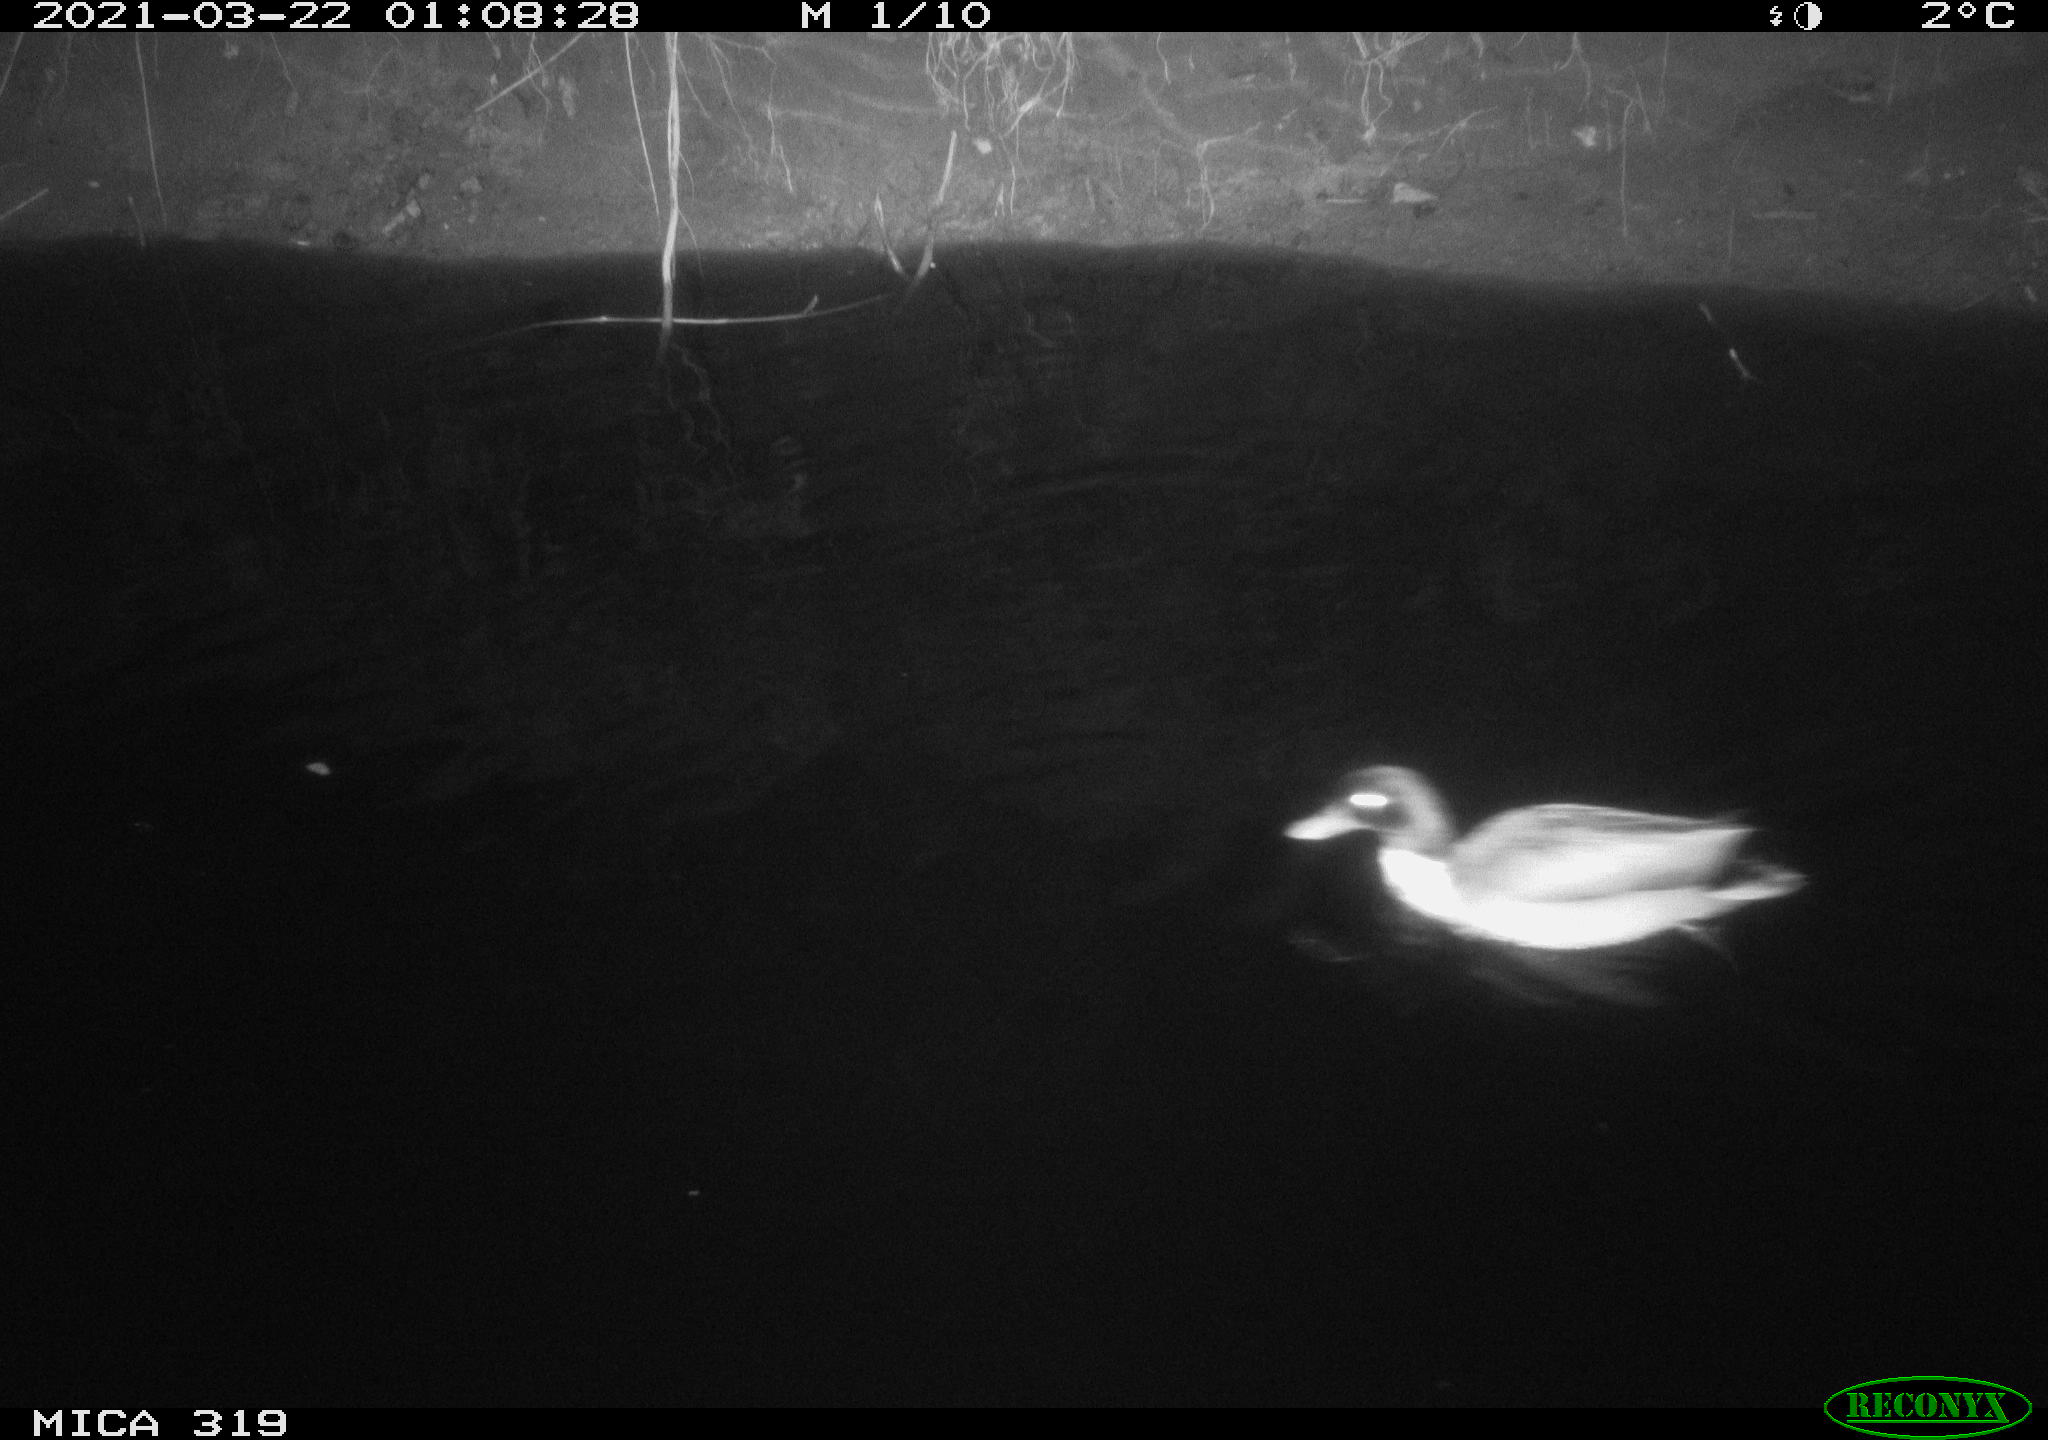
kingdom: Animalia
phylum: Chordata
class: Aves
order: Anseriformes
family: Anatidae
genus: Anas
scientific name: Anas platyrhynchos
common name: Mallard
